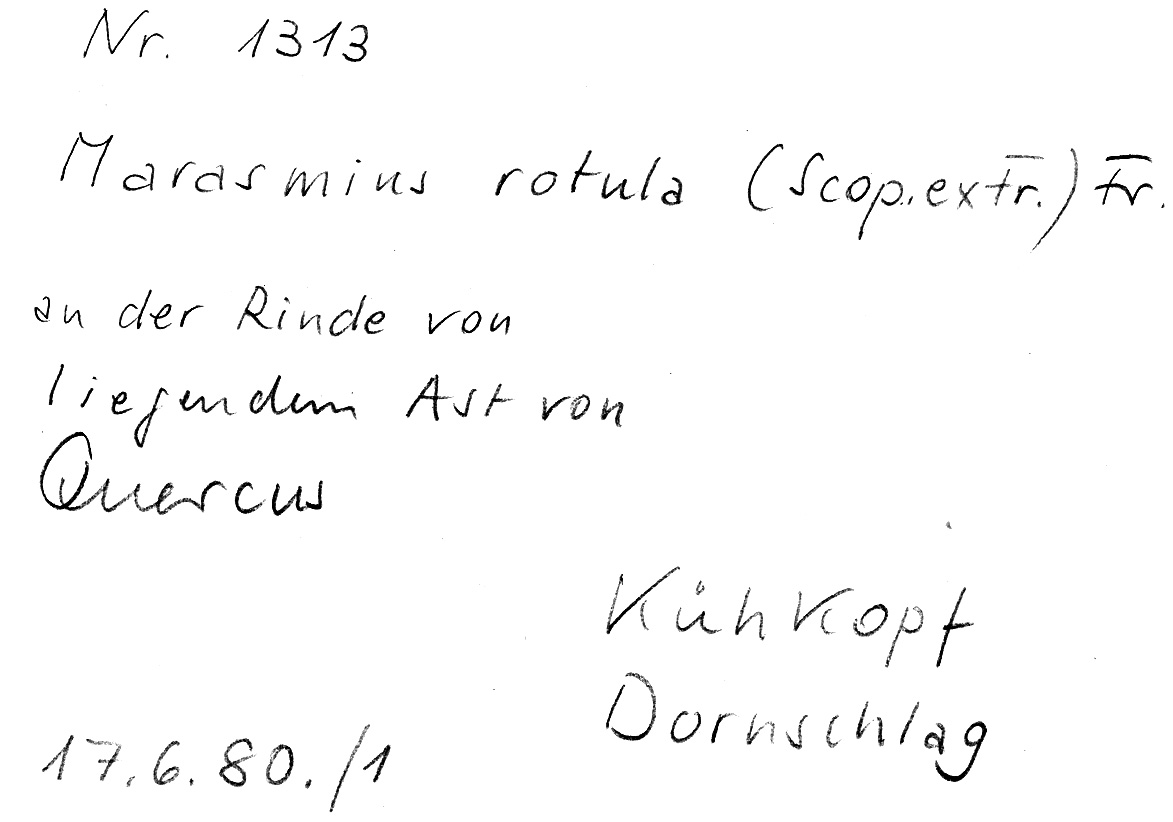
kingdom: Plantae
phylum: Tracheophyta
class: Magnoliopsida
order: Fagales
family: Fagaceae
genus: Quercus
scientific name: Quercus
